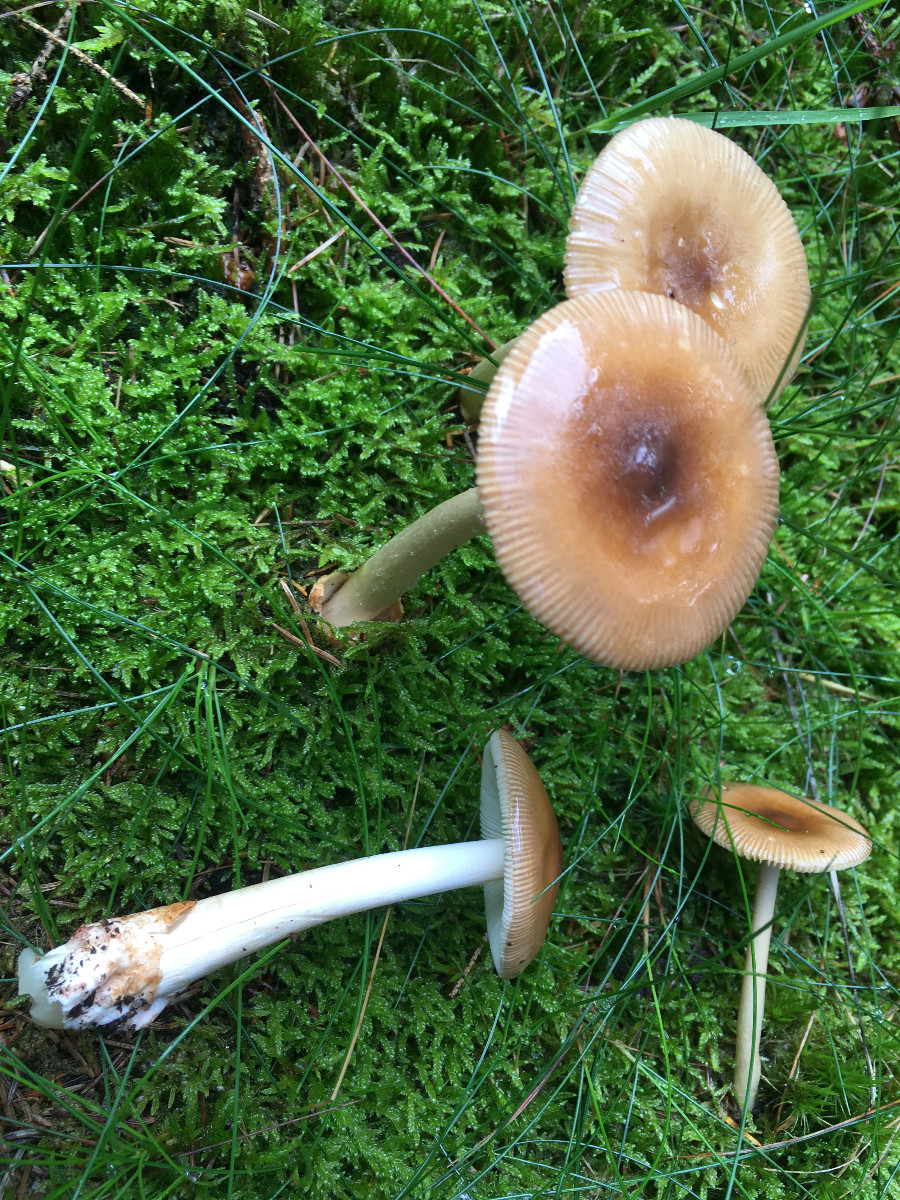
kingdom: Fungi
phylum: Basidiomycota
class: Agaricomycetes
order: Agaricales
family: Amanitaceae
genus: Amanita
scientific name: Amanita fulva
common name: brun kam-fluesvamp
